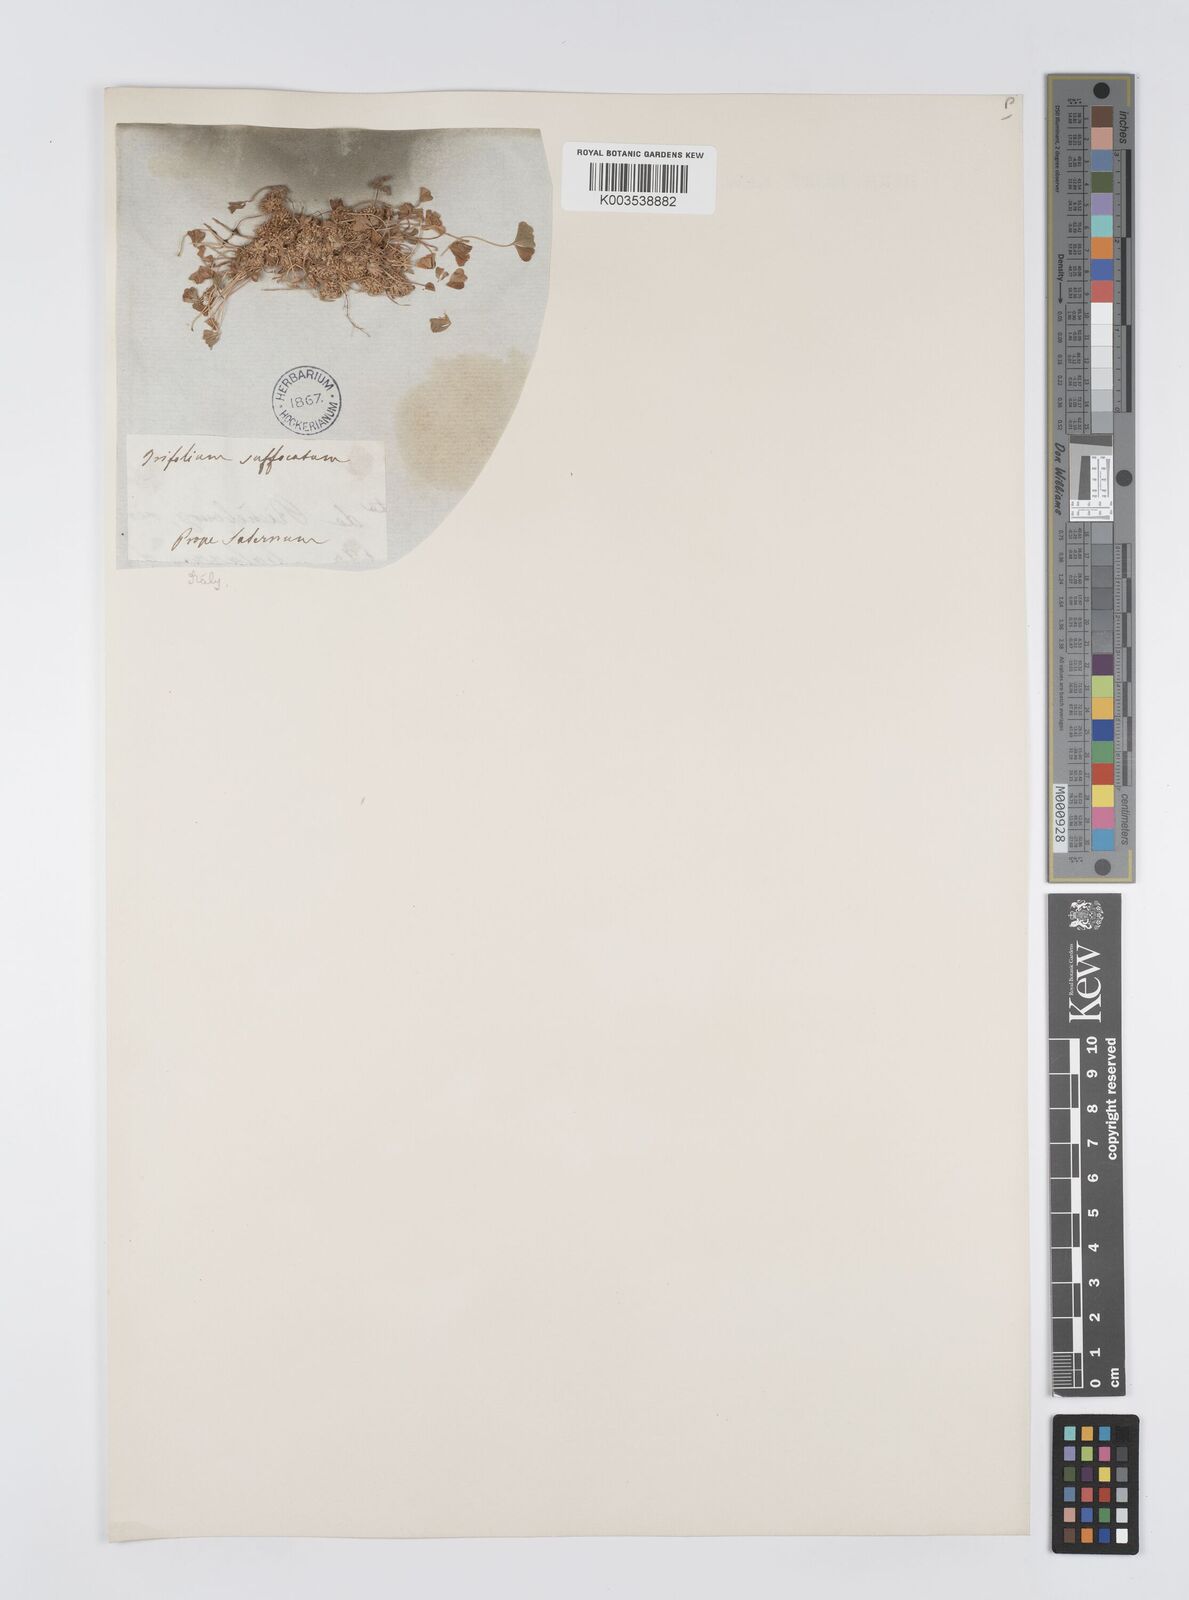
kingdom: Plantae
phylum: Tracheophyta
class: Magnoliopsida
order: Fabales
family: Fabaceae
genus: Trifolium
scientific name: Trifolium suffocatum
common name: Suffocated clover
